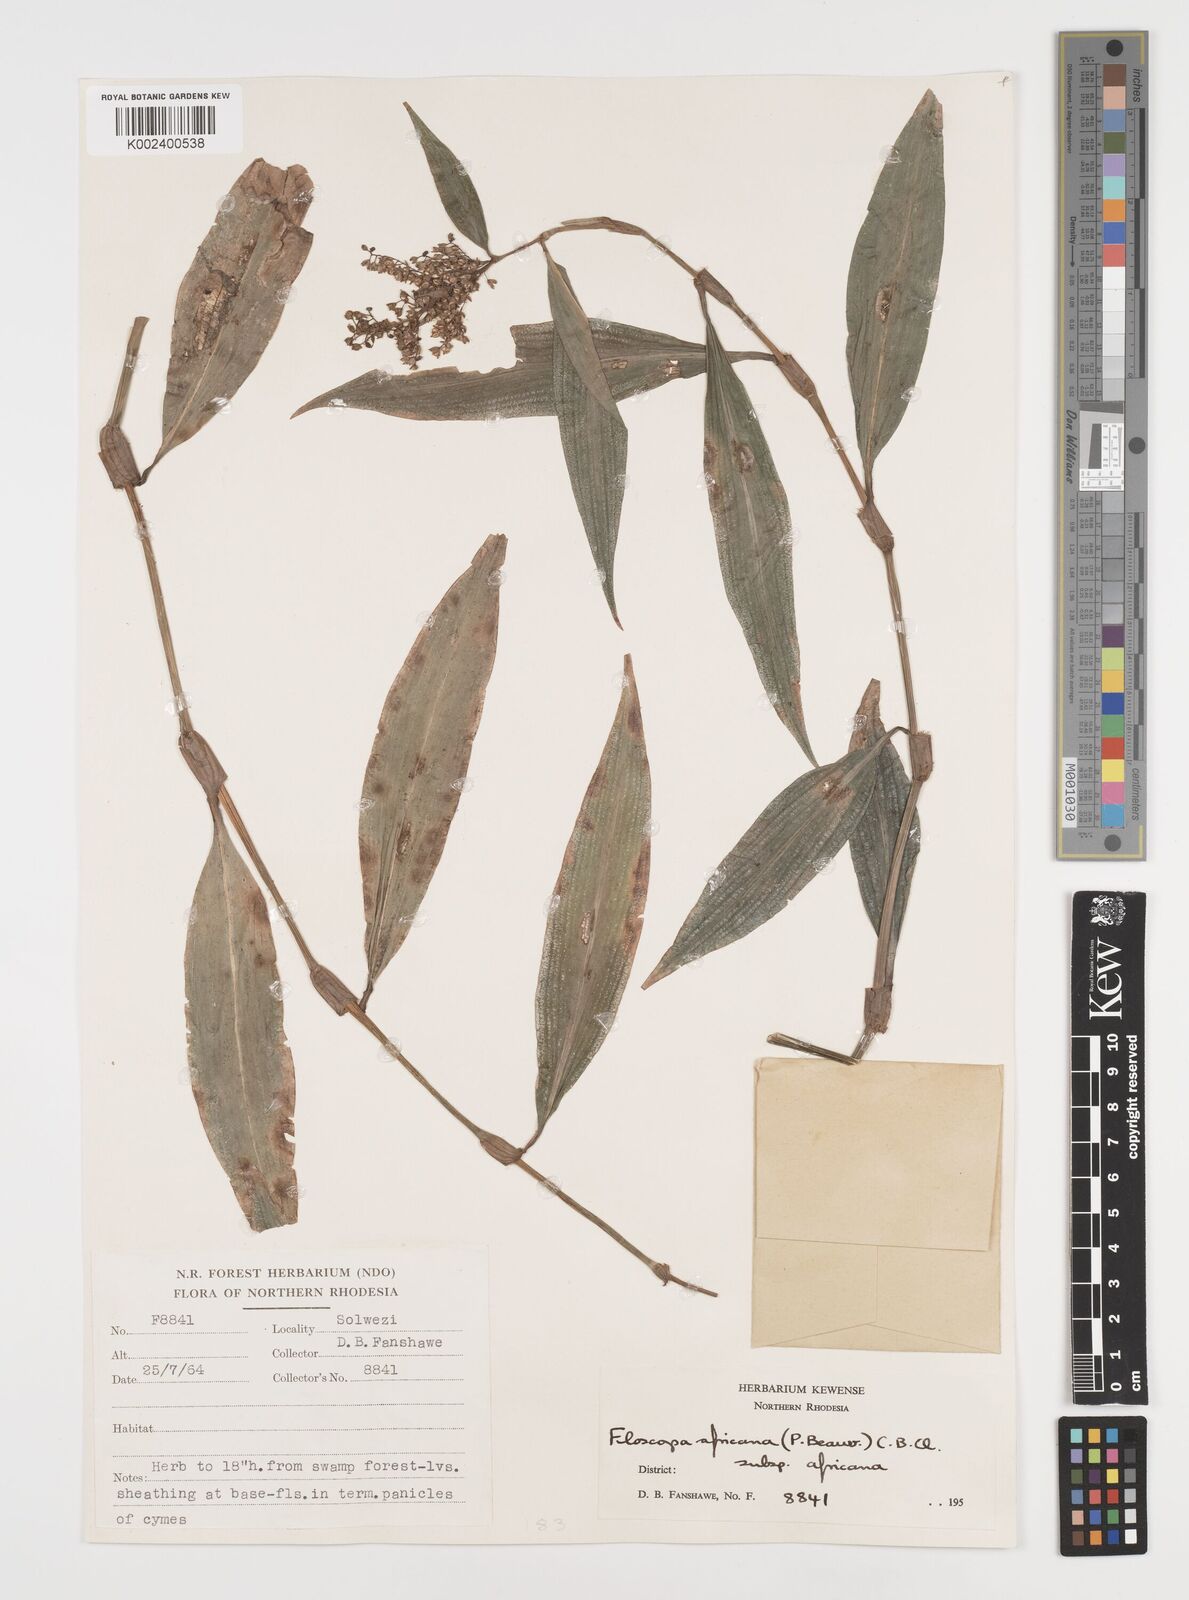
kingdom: Plantae
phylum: Tracheophyta
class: Liliopsida
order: Commelinales
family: Commelinaceae
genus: Floscopa
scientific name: Floscopa africana
